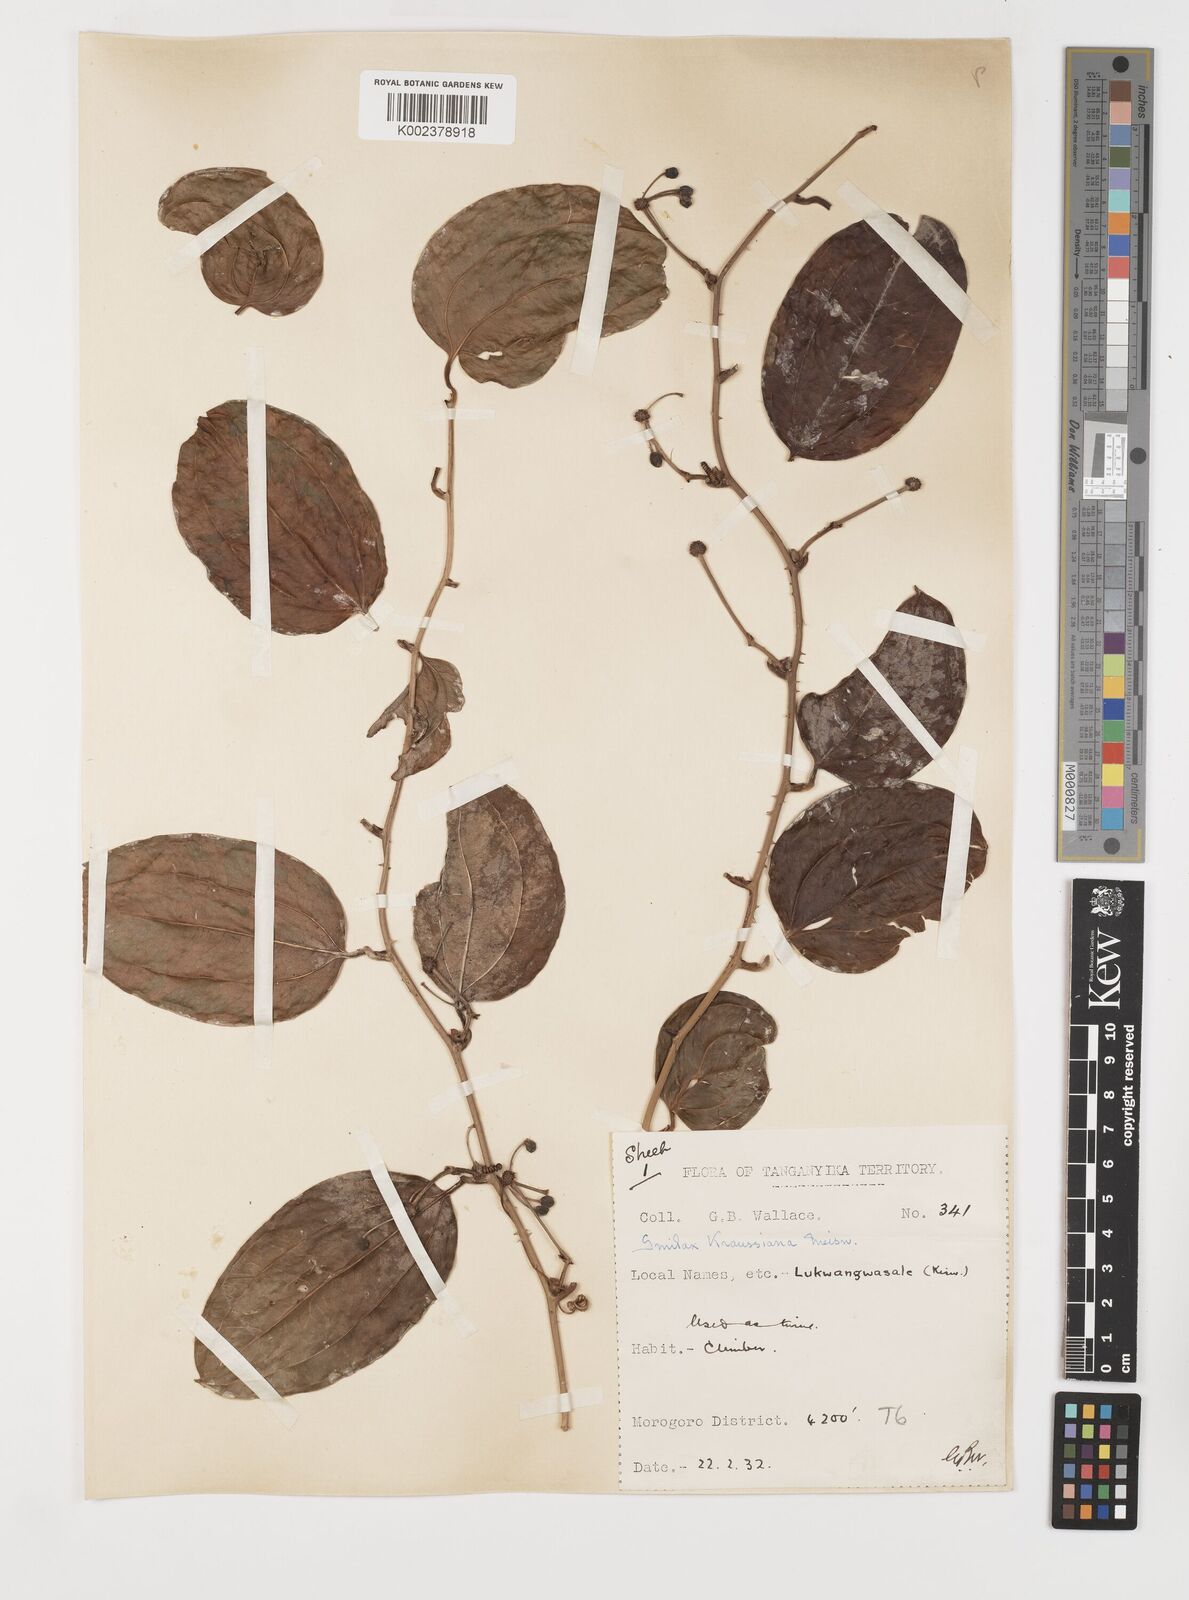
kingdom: Plantae
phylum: Tracheophyta
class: Liliopsida
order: Liliales
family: Smilacaceae
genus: Smilax
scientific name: Smilax anceps
